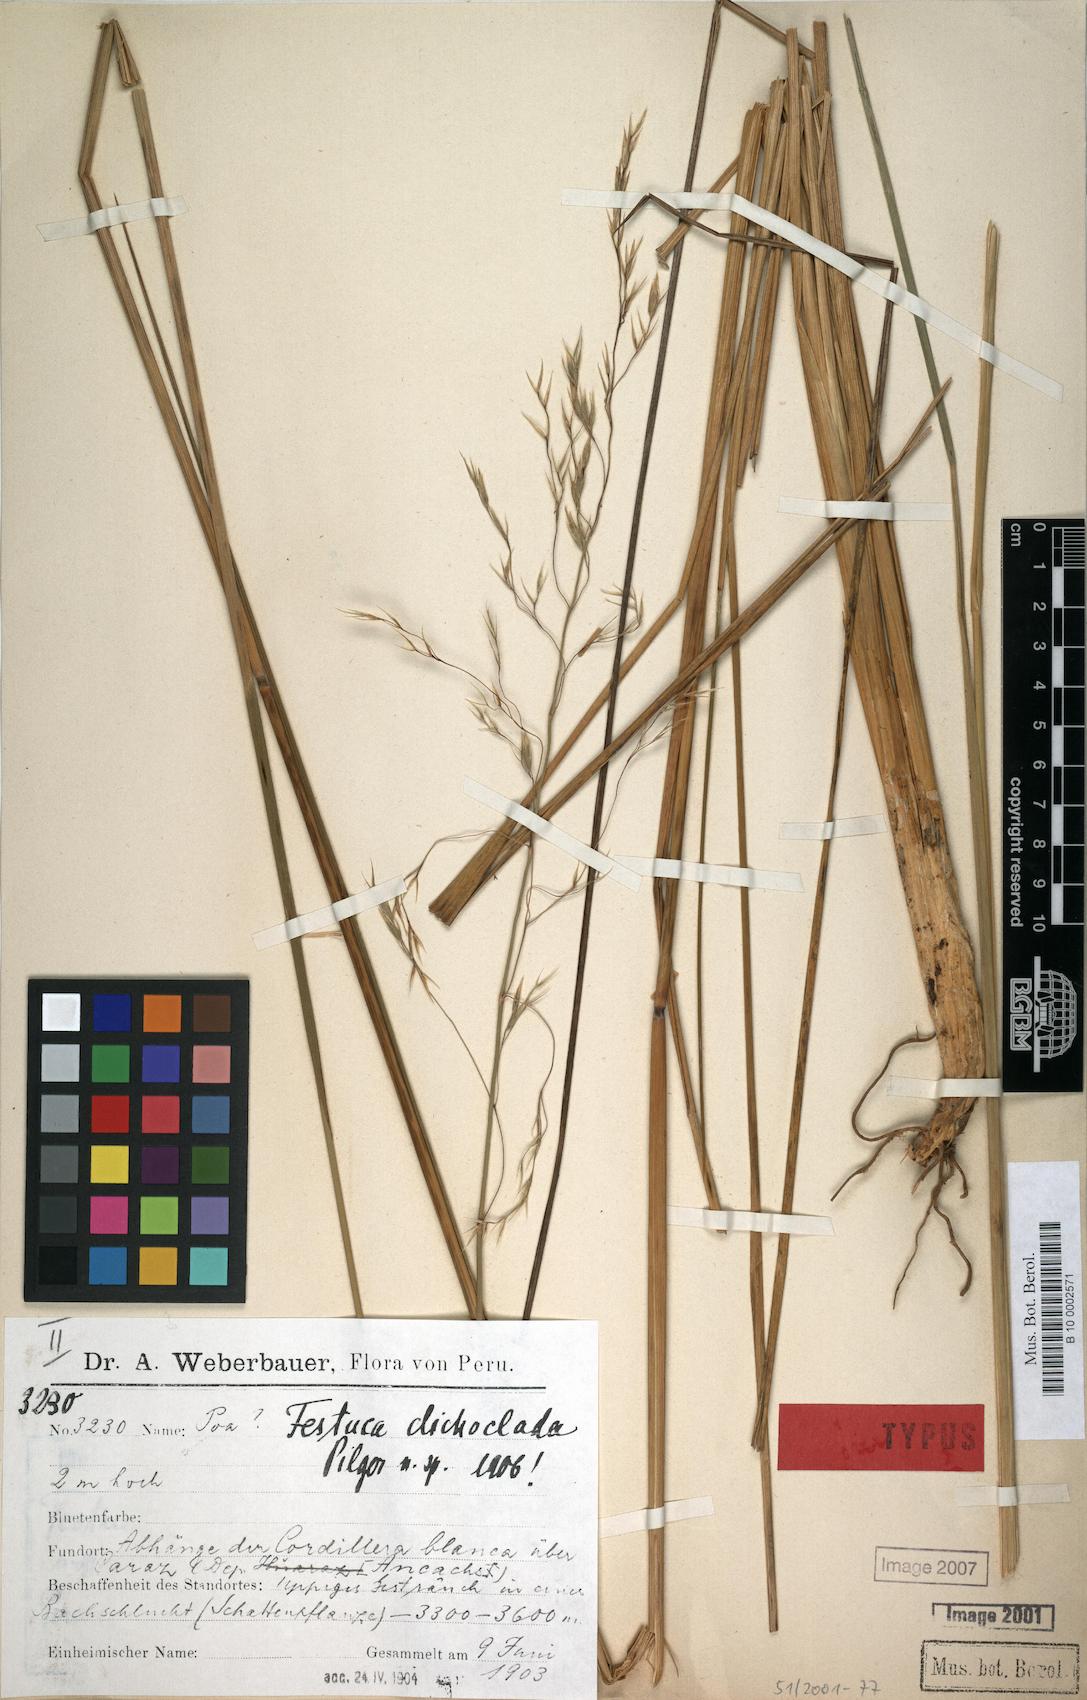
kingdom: Plantae
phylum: Tracheophyta
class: Liliopsida
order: Poales
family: Poaceae
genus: Festuca
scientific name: Festuca dichoclada
